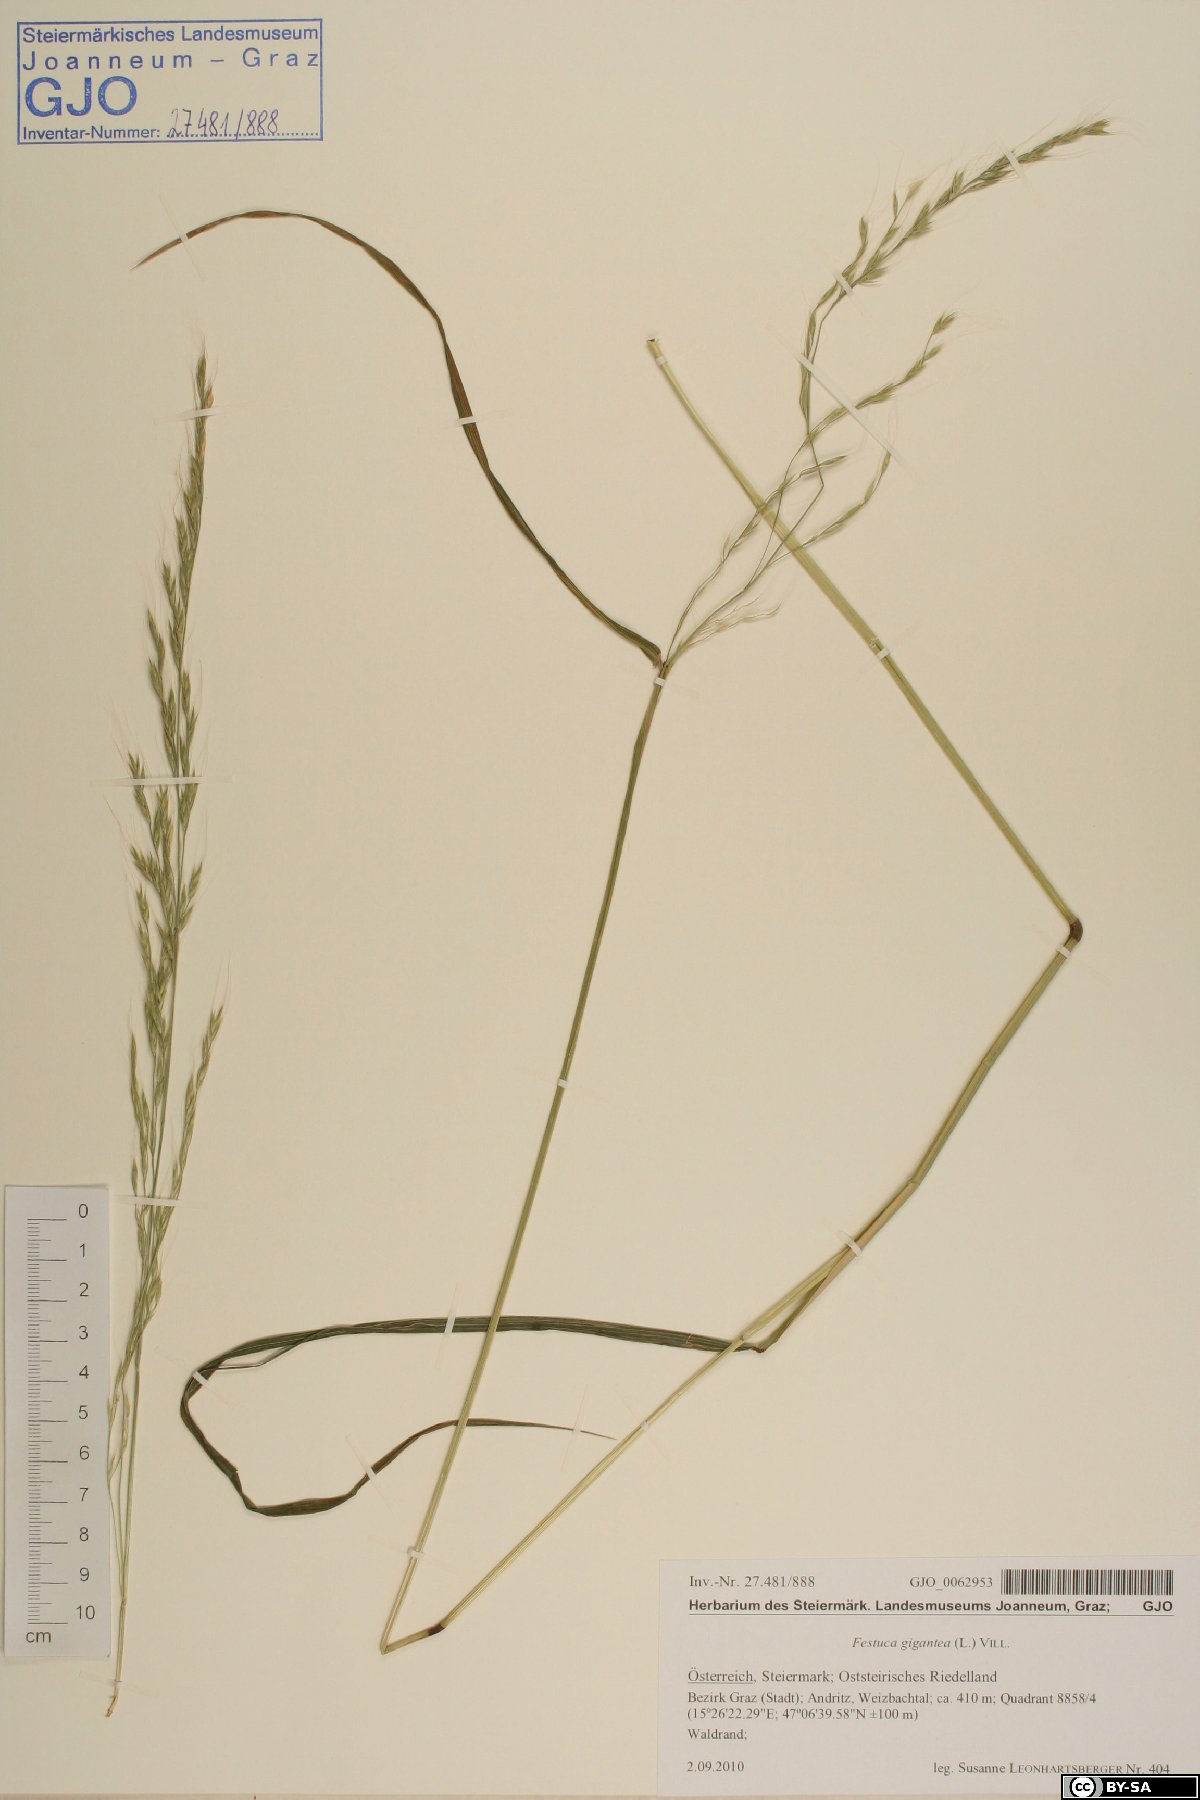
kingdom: Plantae
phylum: Tracheophyta
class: Liliopsida
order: Poales
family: Poaceae
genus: Lolium
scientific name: Lolium giganteum
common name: Giant fescue
